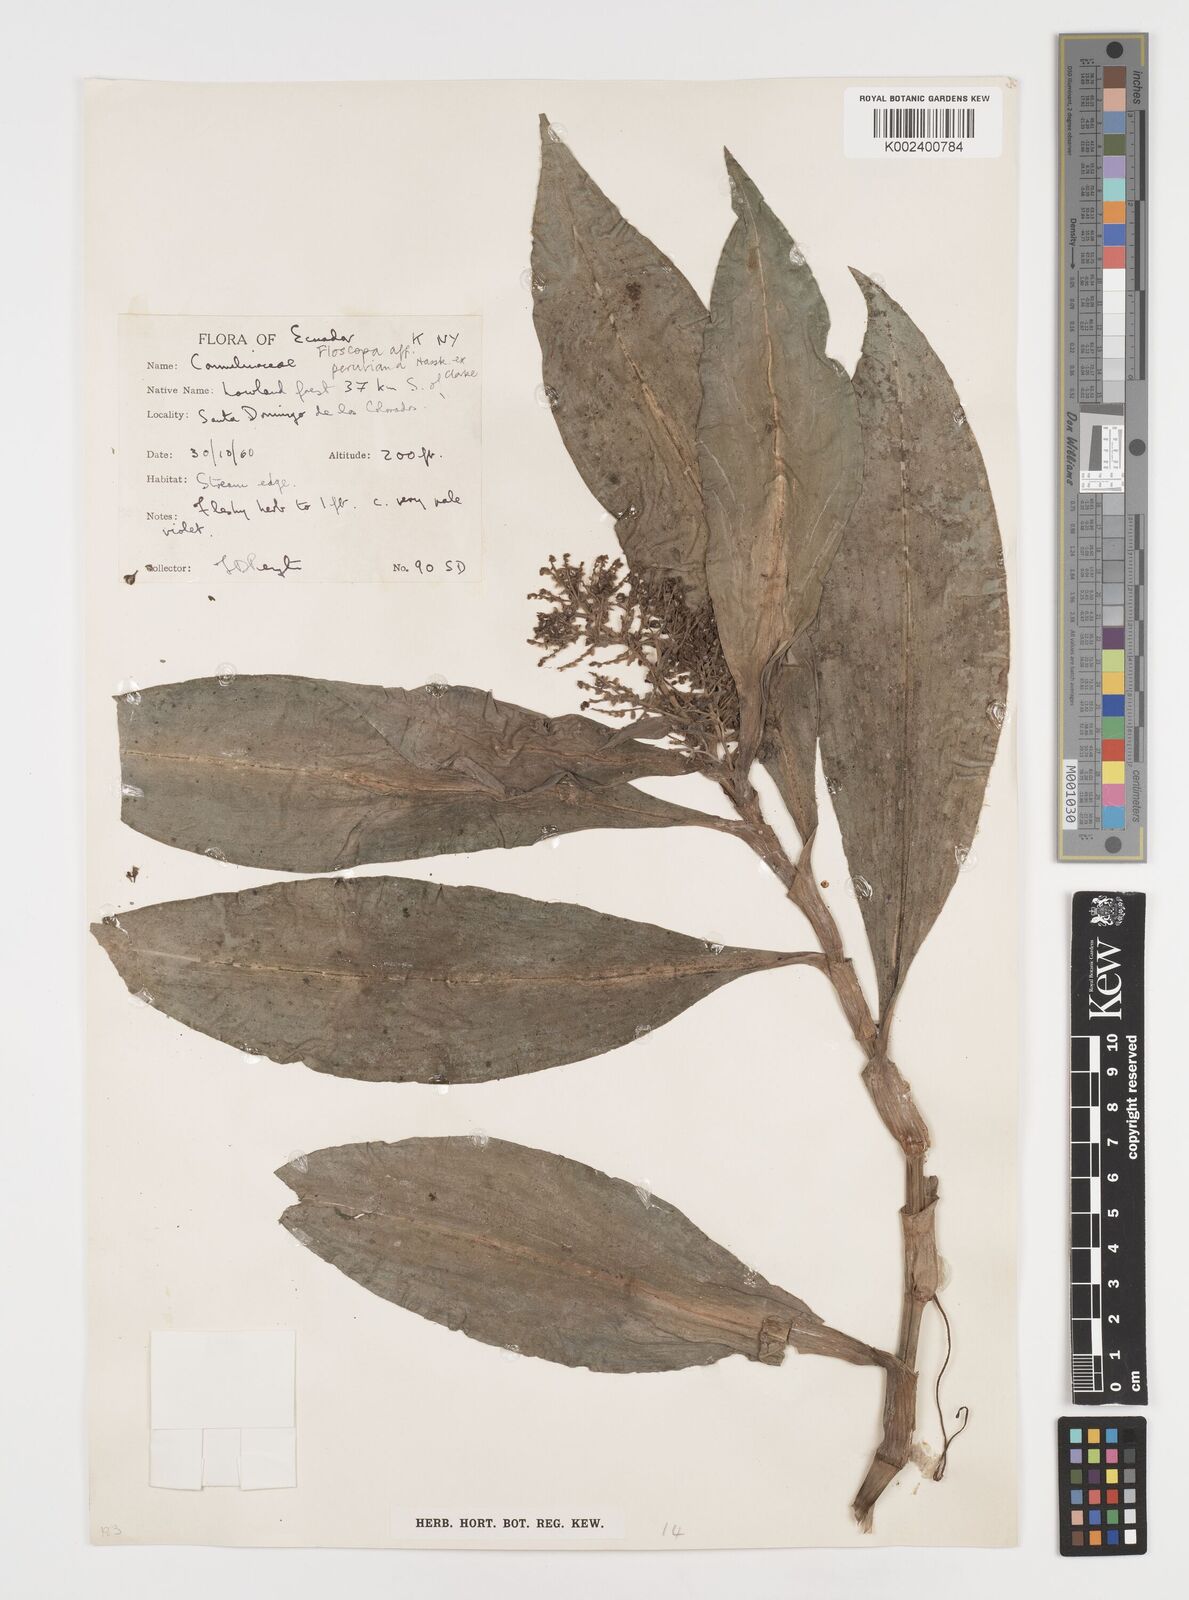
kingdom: Plantae
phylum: Tracheophyta
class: Liliopsida
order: Commelinales
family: Commelinaceae
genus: Floscopa
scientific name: Floscopa peruviana
